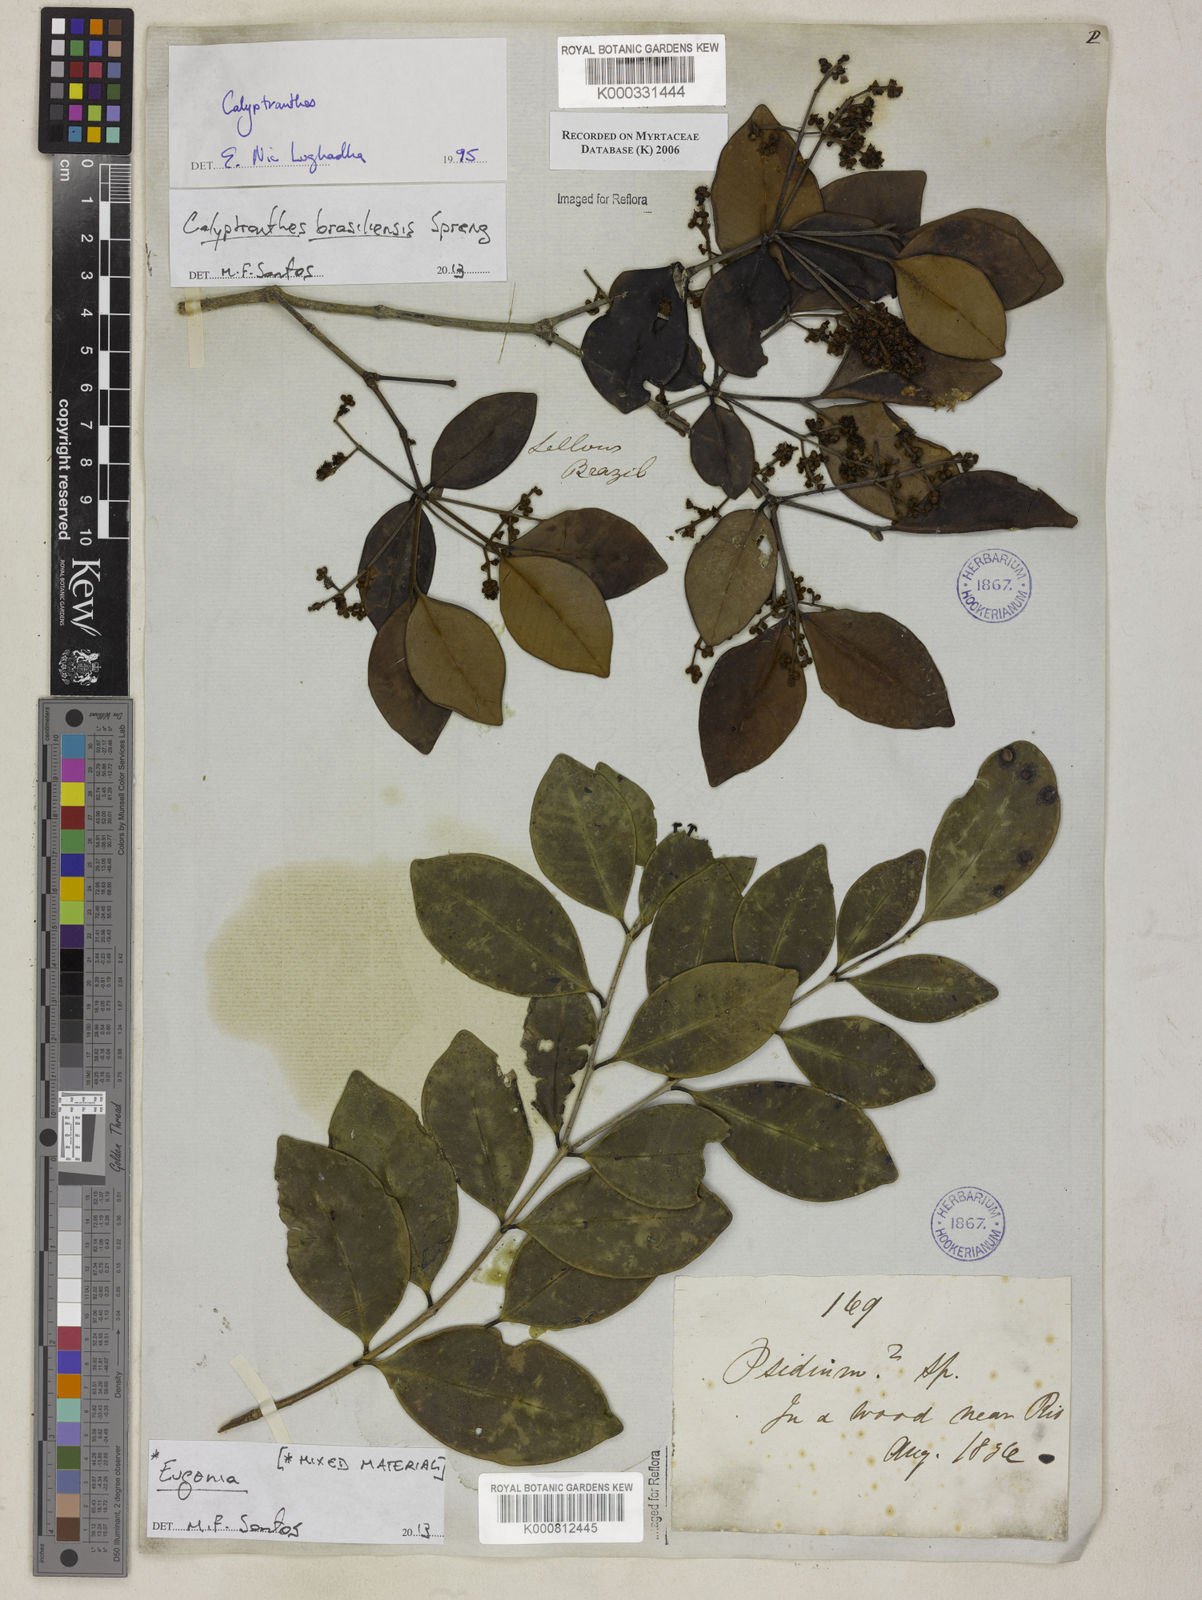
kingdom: Plantae
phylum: Tracheophyta
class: Magnoliopsida
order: Myrtales
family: Myrtaceae
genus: Calyptranthes
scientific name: Calyptranthes
